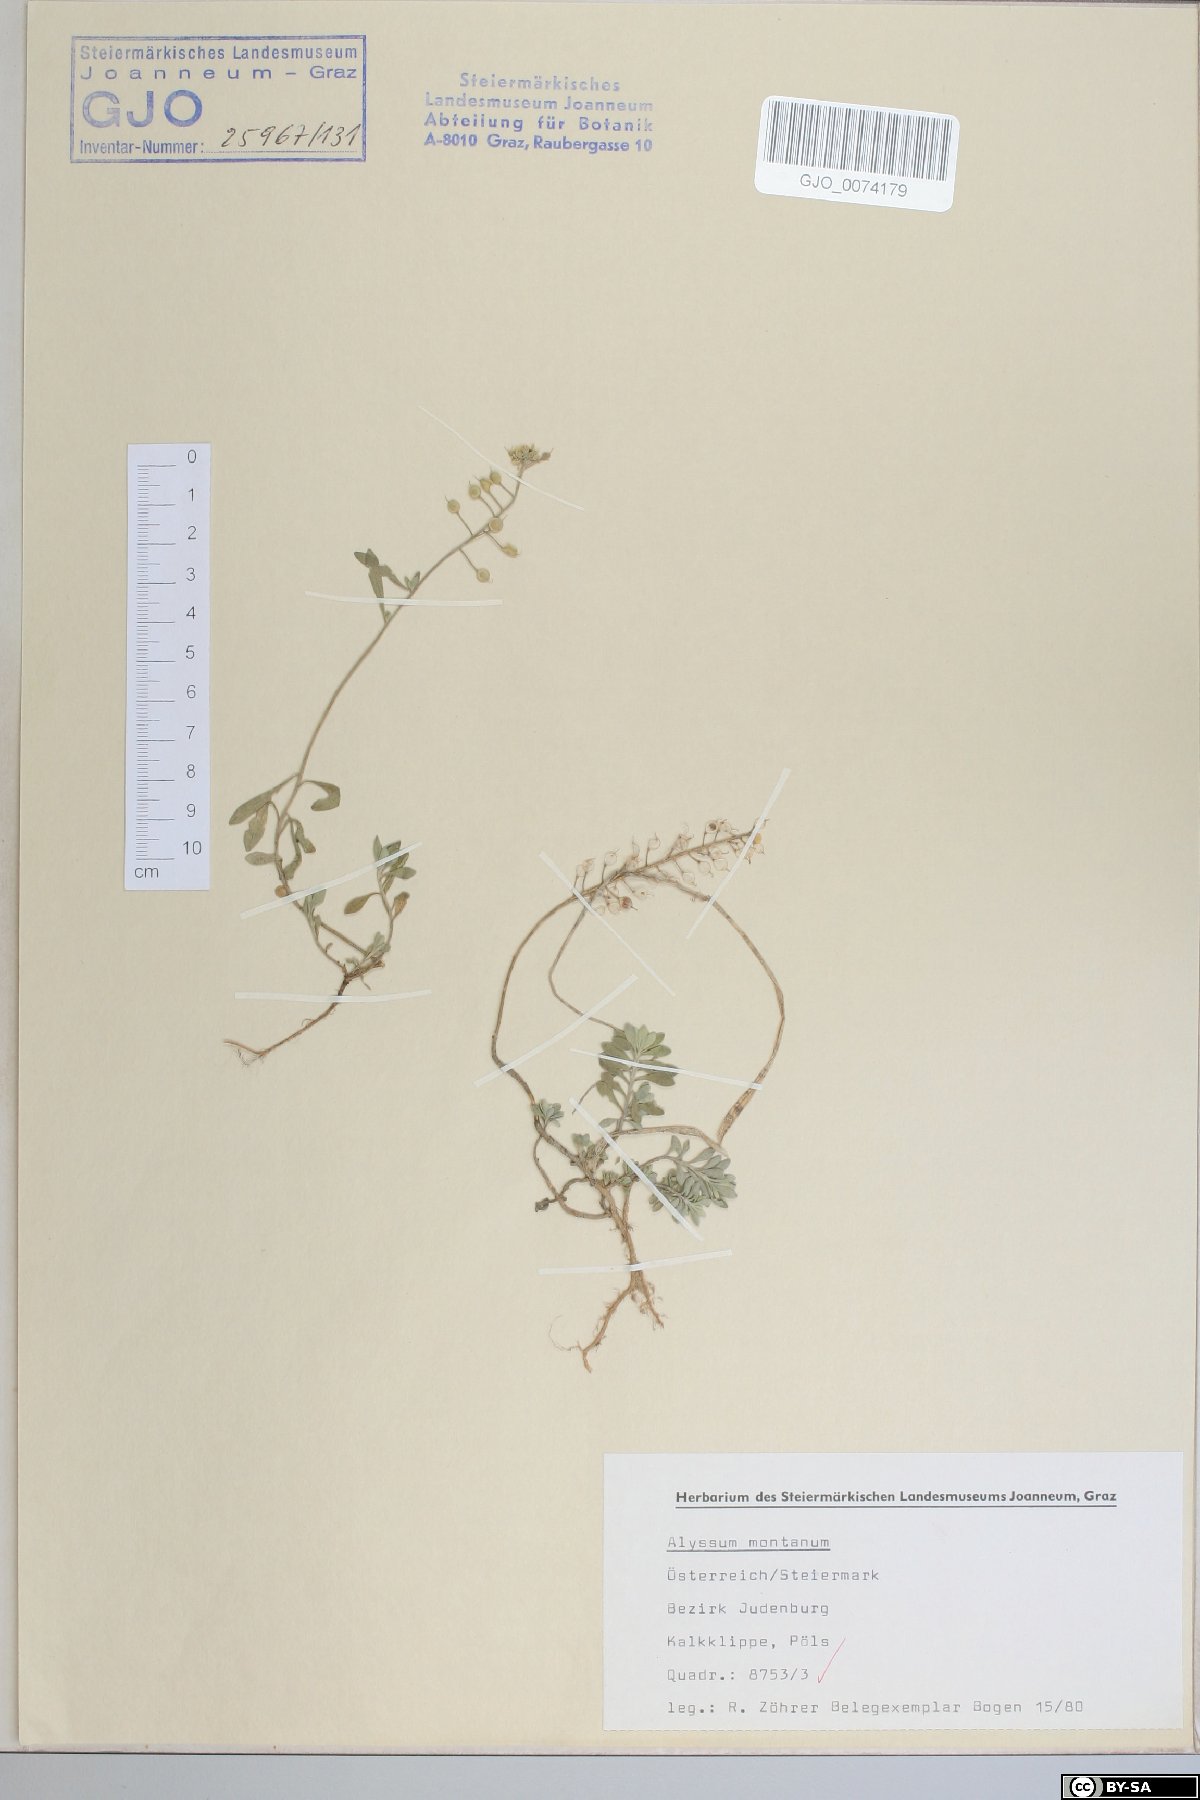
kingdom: Plantae
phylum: Tracheophyta
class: Magnoliopsida
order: Brassicales
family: Brassicaceae
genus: Alyssum
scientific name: Alyssum montanum
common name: Mountain alison
